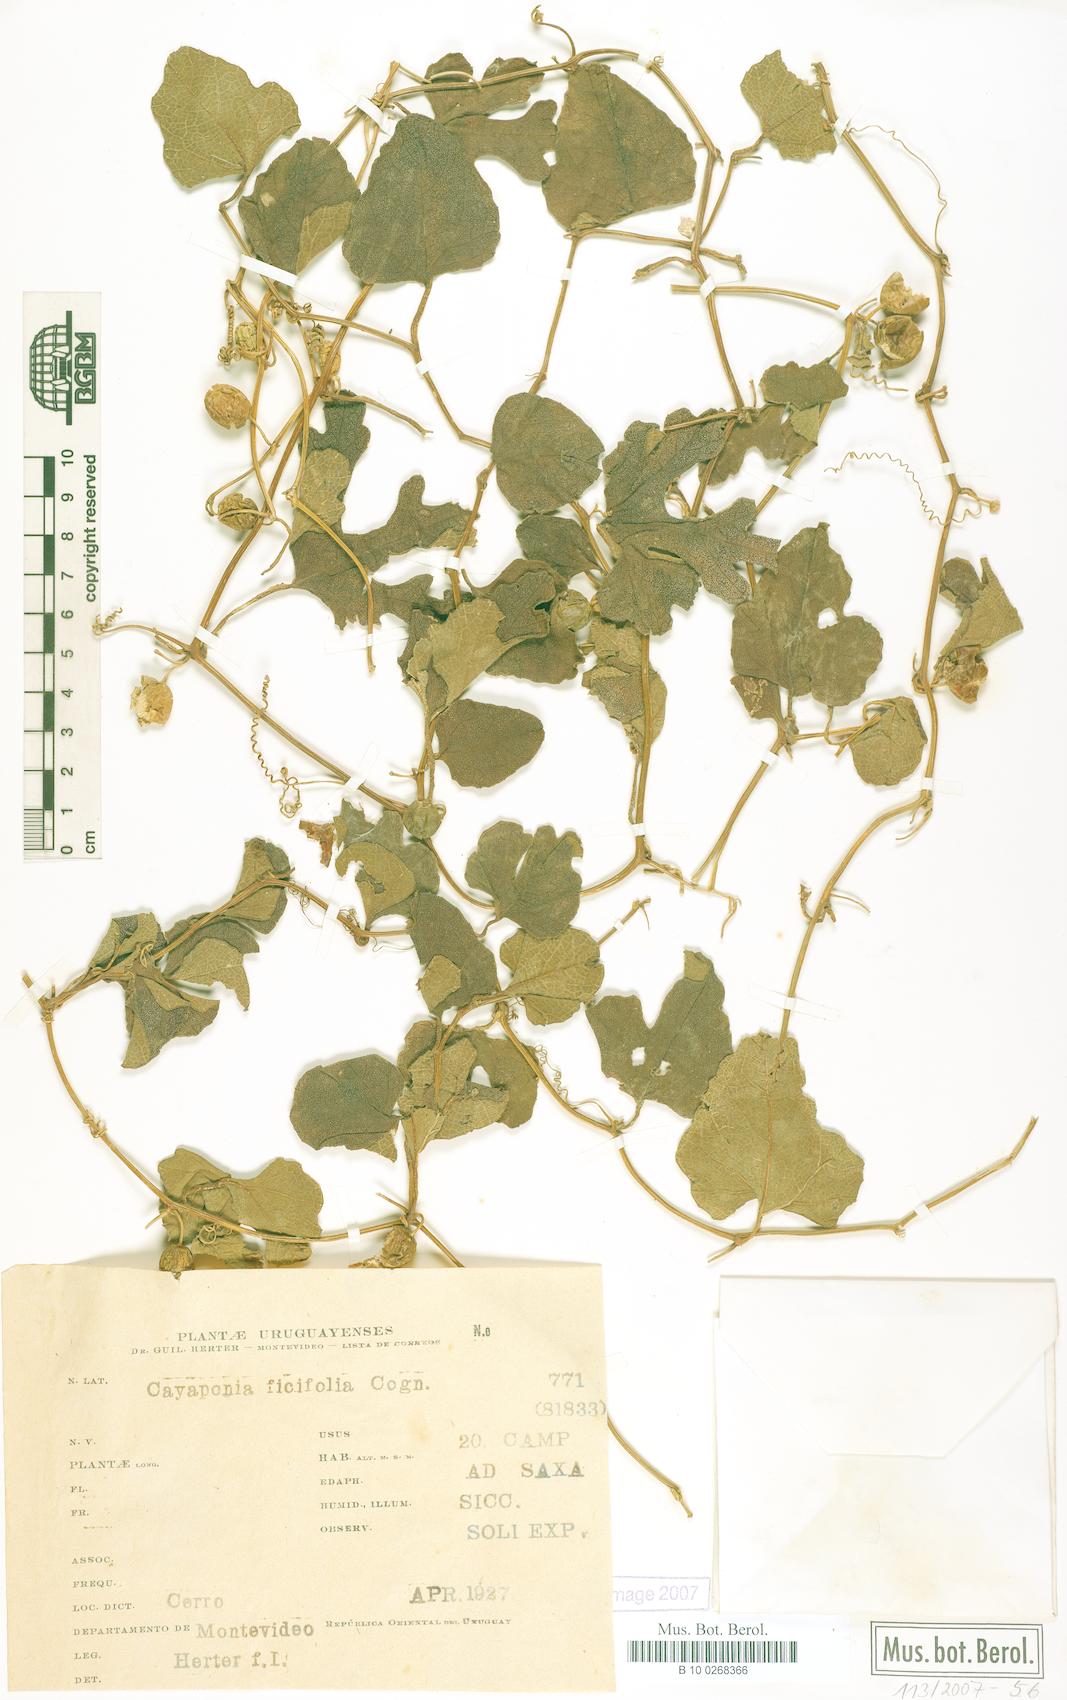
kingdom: Plantae
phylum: Tracheophyta
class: Magnoliopsida
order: Cucurbitales
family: Cucurbitaceae
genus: Cayaponia
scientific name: Cayaponia bonariensis
